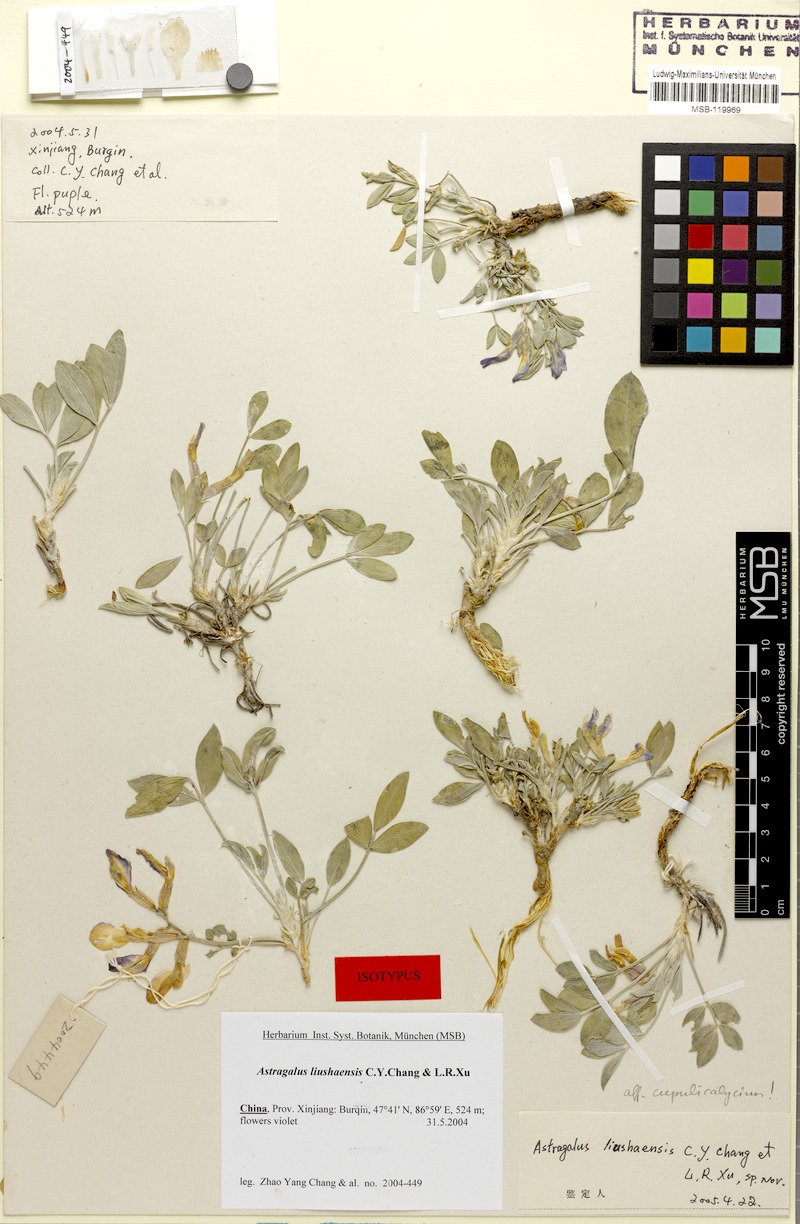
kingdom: Plantae
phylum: Tracheophyta
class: Magnoliopsida
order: Fabales
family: Fabaceae
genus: Astragalus
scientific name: Astragalus eerqisiensis
